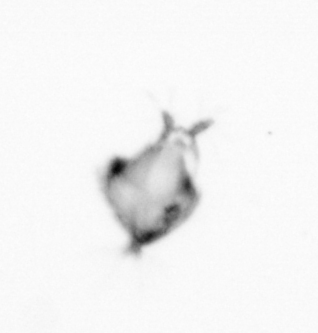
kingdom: Animalia
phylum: Annelida
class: Polychaeta
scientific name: Polychaeta
